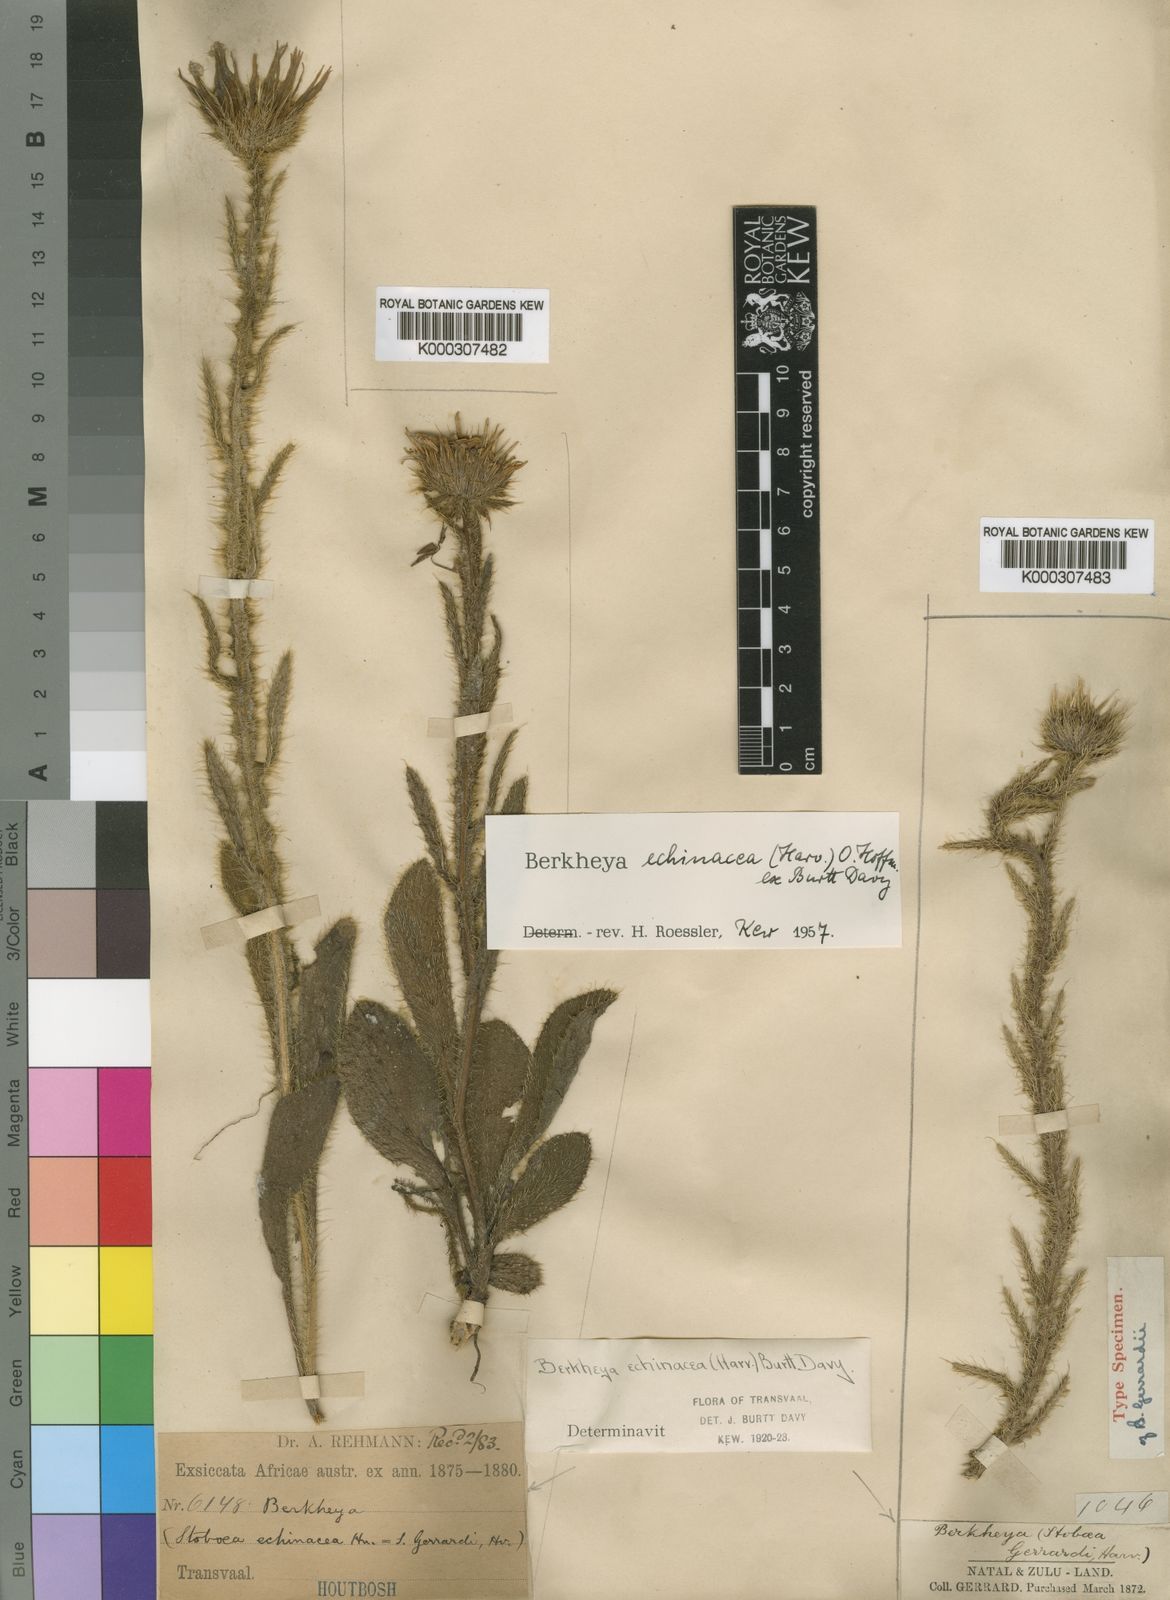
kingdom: Plantae
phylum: Tracheophyta
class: Magnoliopsida
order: Asterales
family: Asteraceae
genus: Berkheya
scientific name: Berkheya echinacea
